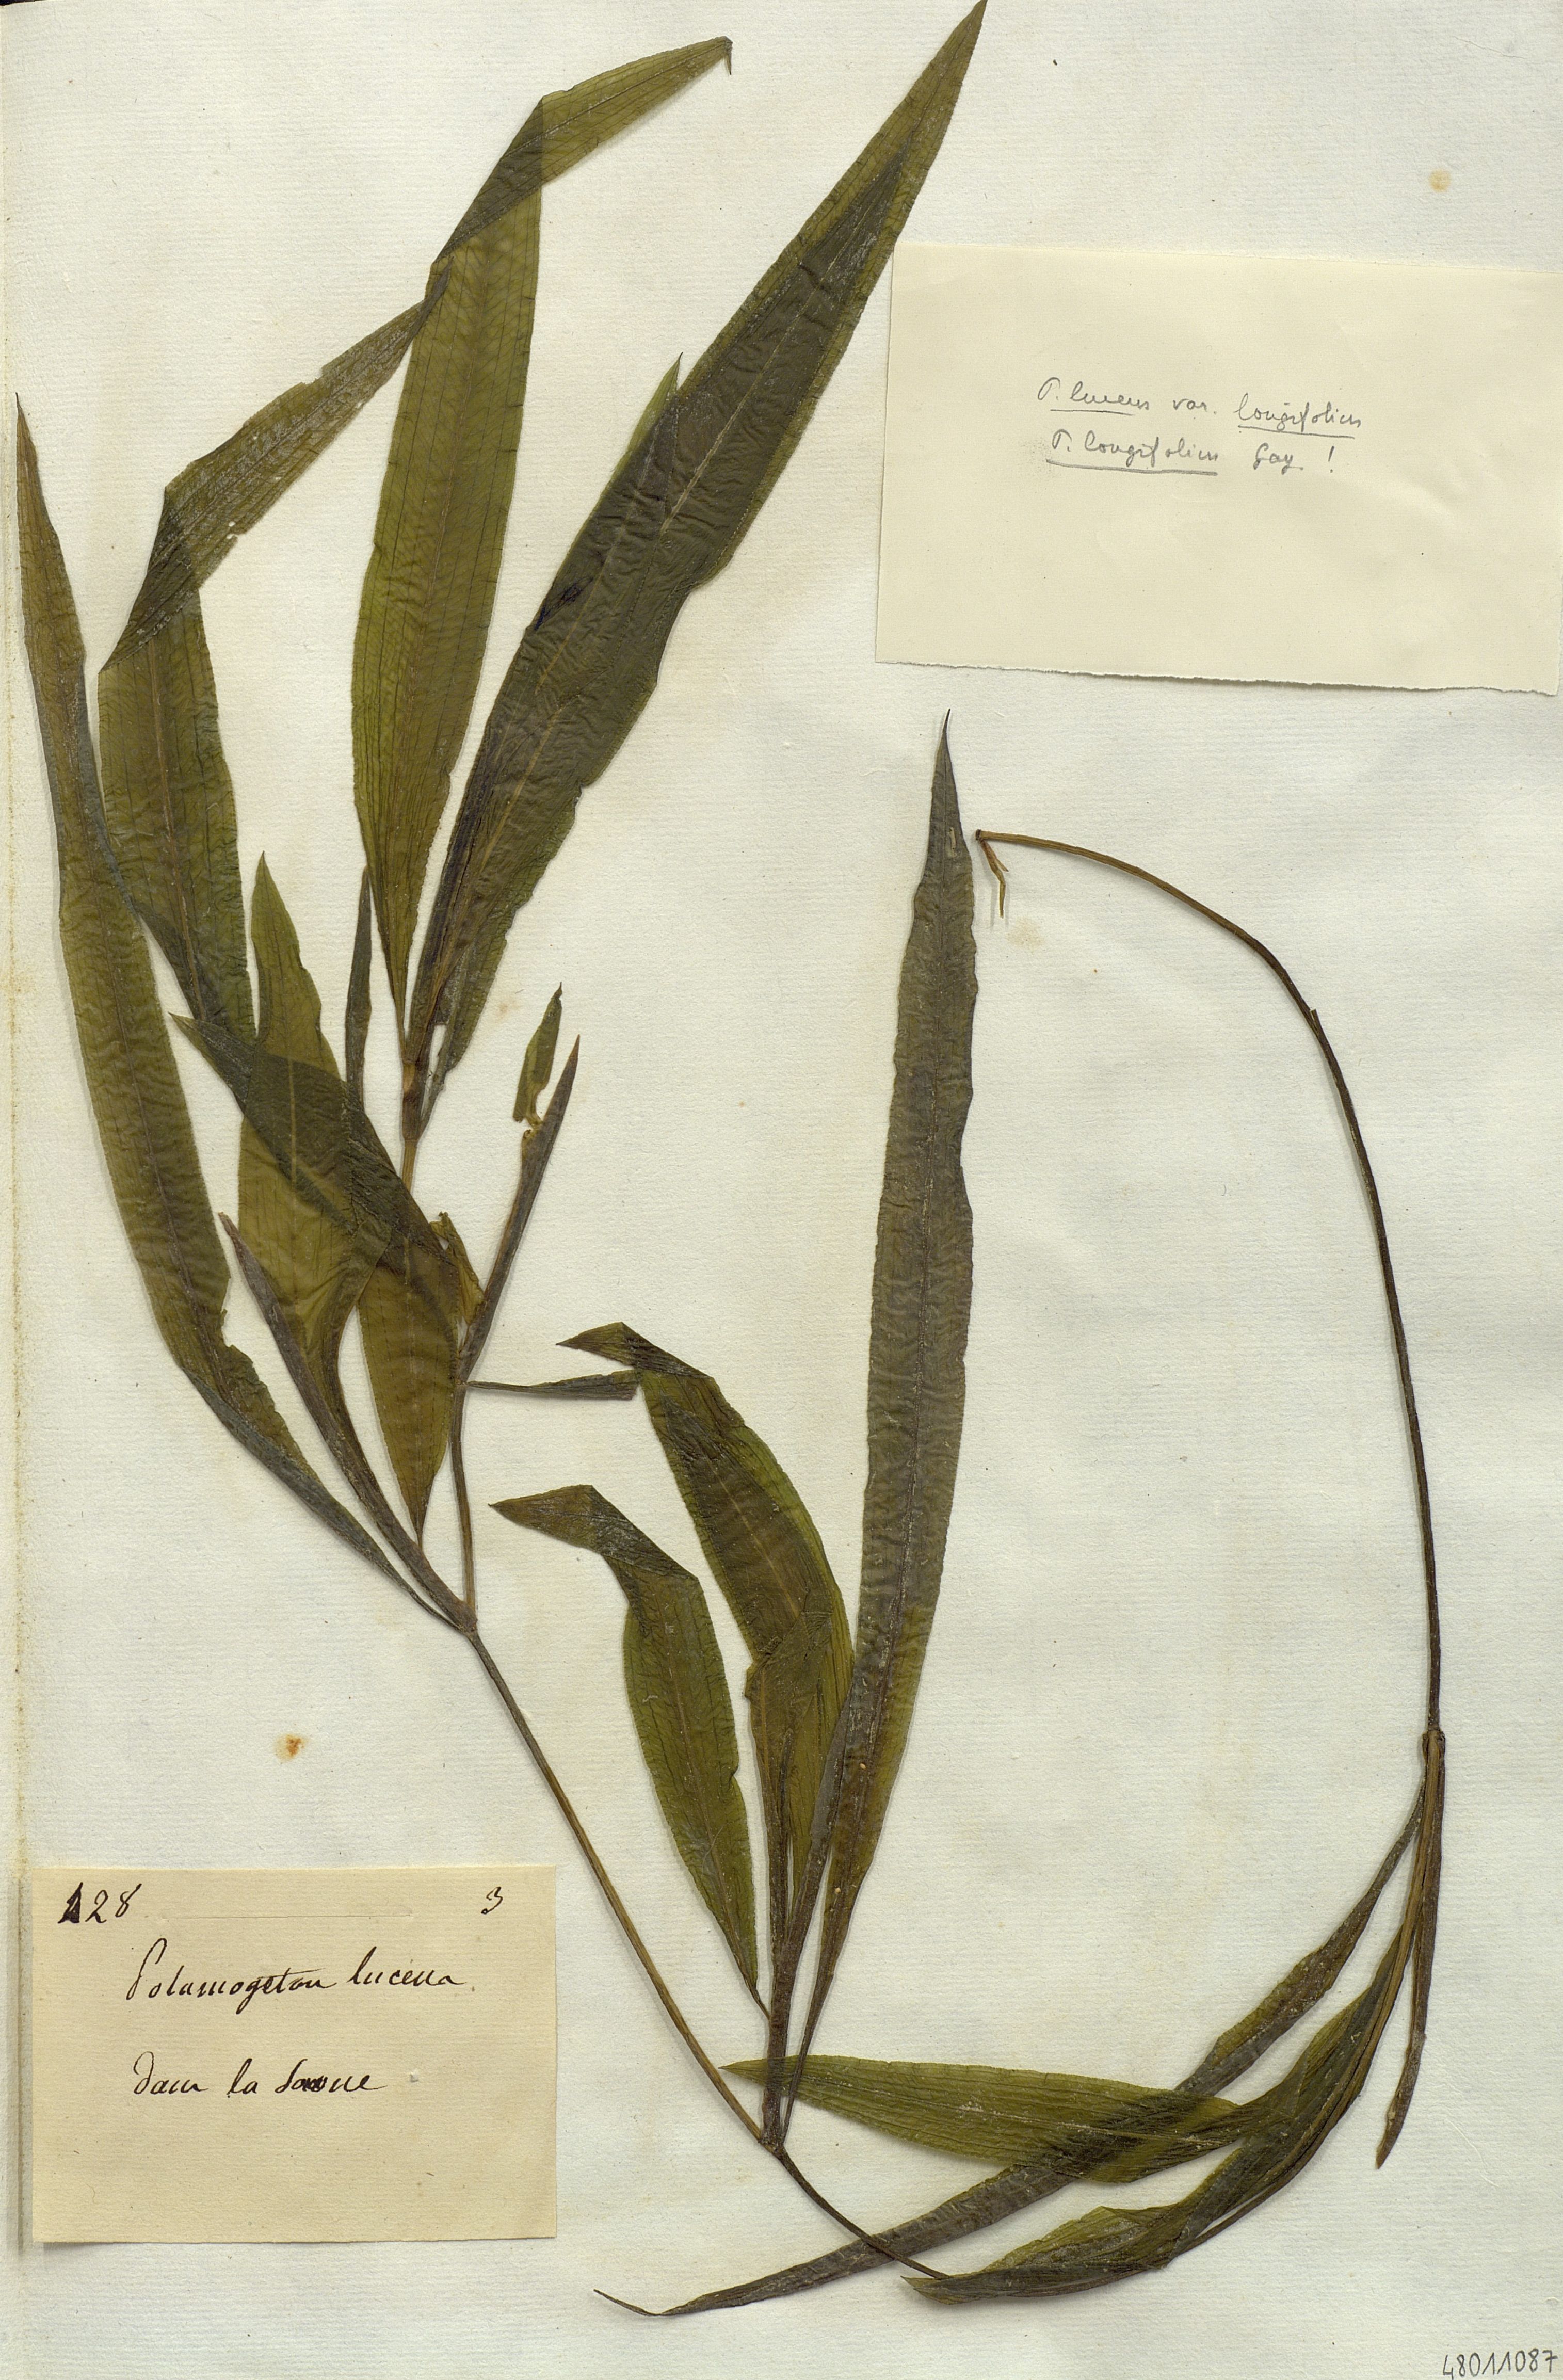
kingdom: Plantae
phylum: Tracheophyta
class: Liliopsida
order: Alismatales
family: Potamogetonaceae
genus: Potamogeton
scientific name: Potamogeton lucens
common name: Shining pondweed
